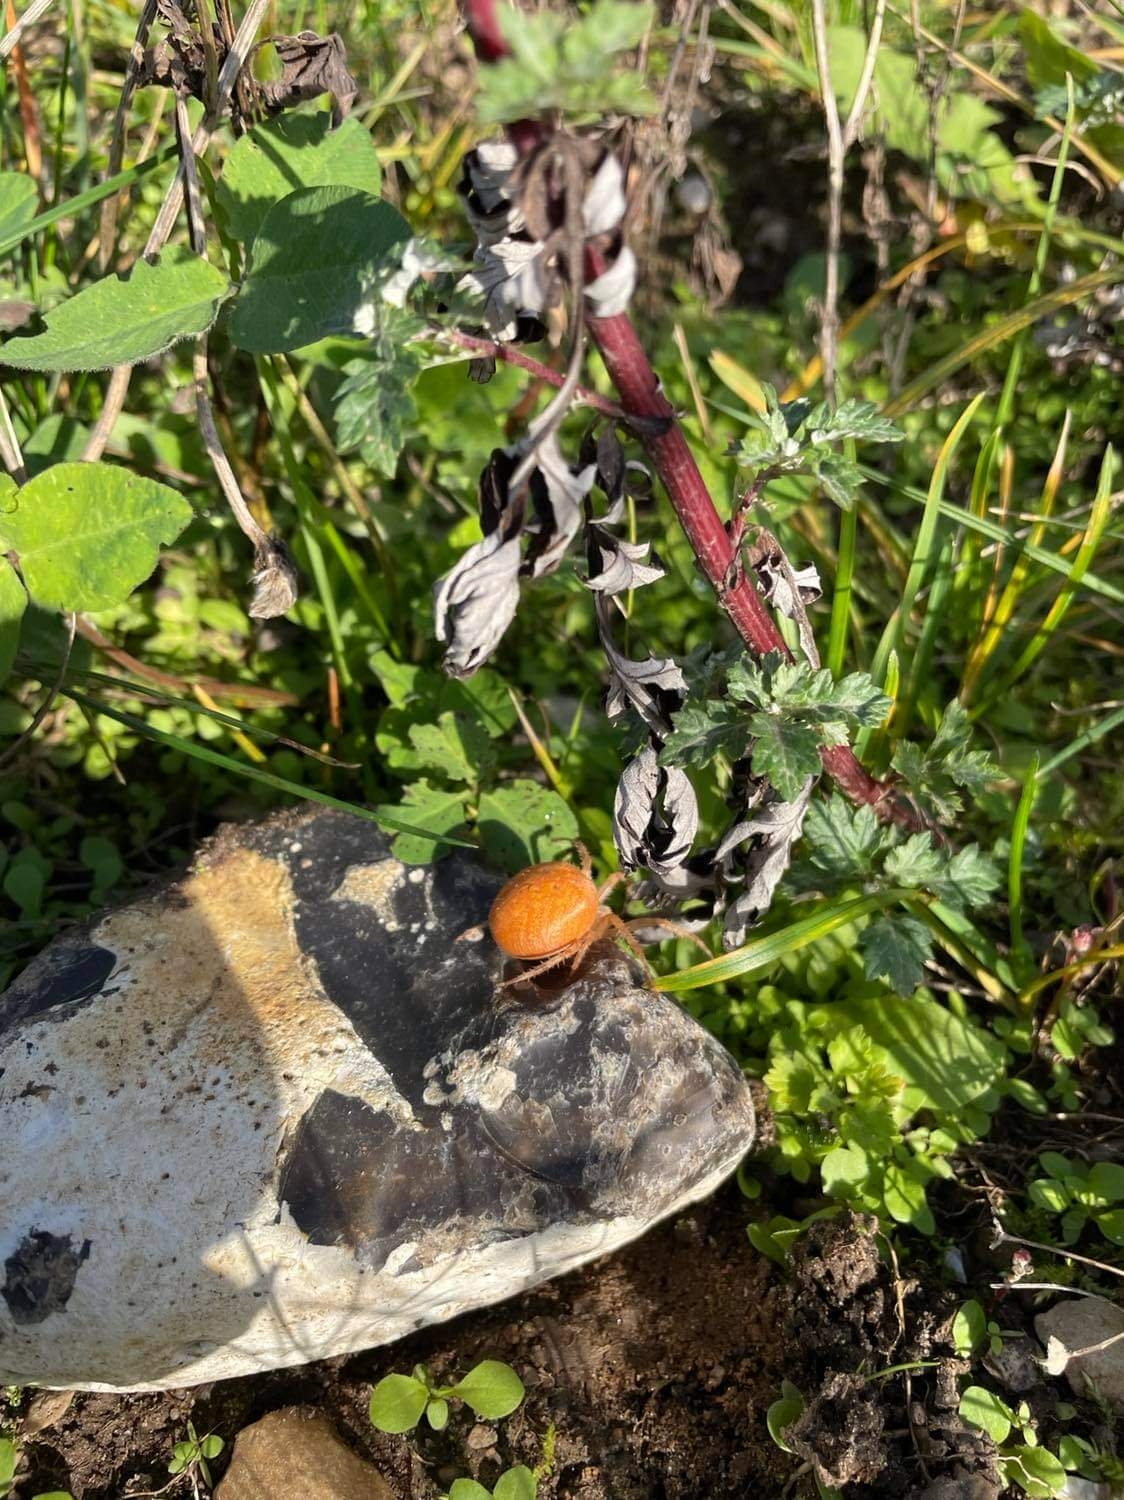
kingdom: Animalia
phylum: Arthropoda
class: Arachnida
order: Araneae
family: Araneidae
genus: Araneus
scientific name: Araneus diadematus
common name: Korsedderkop
